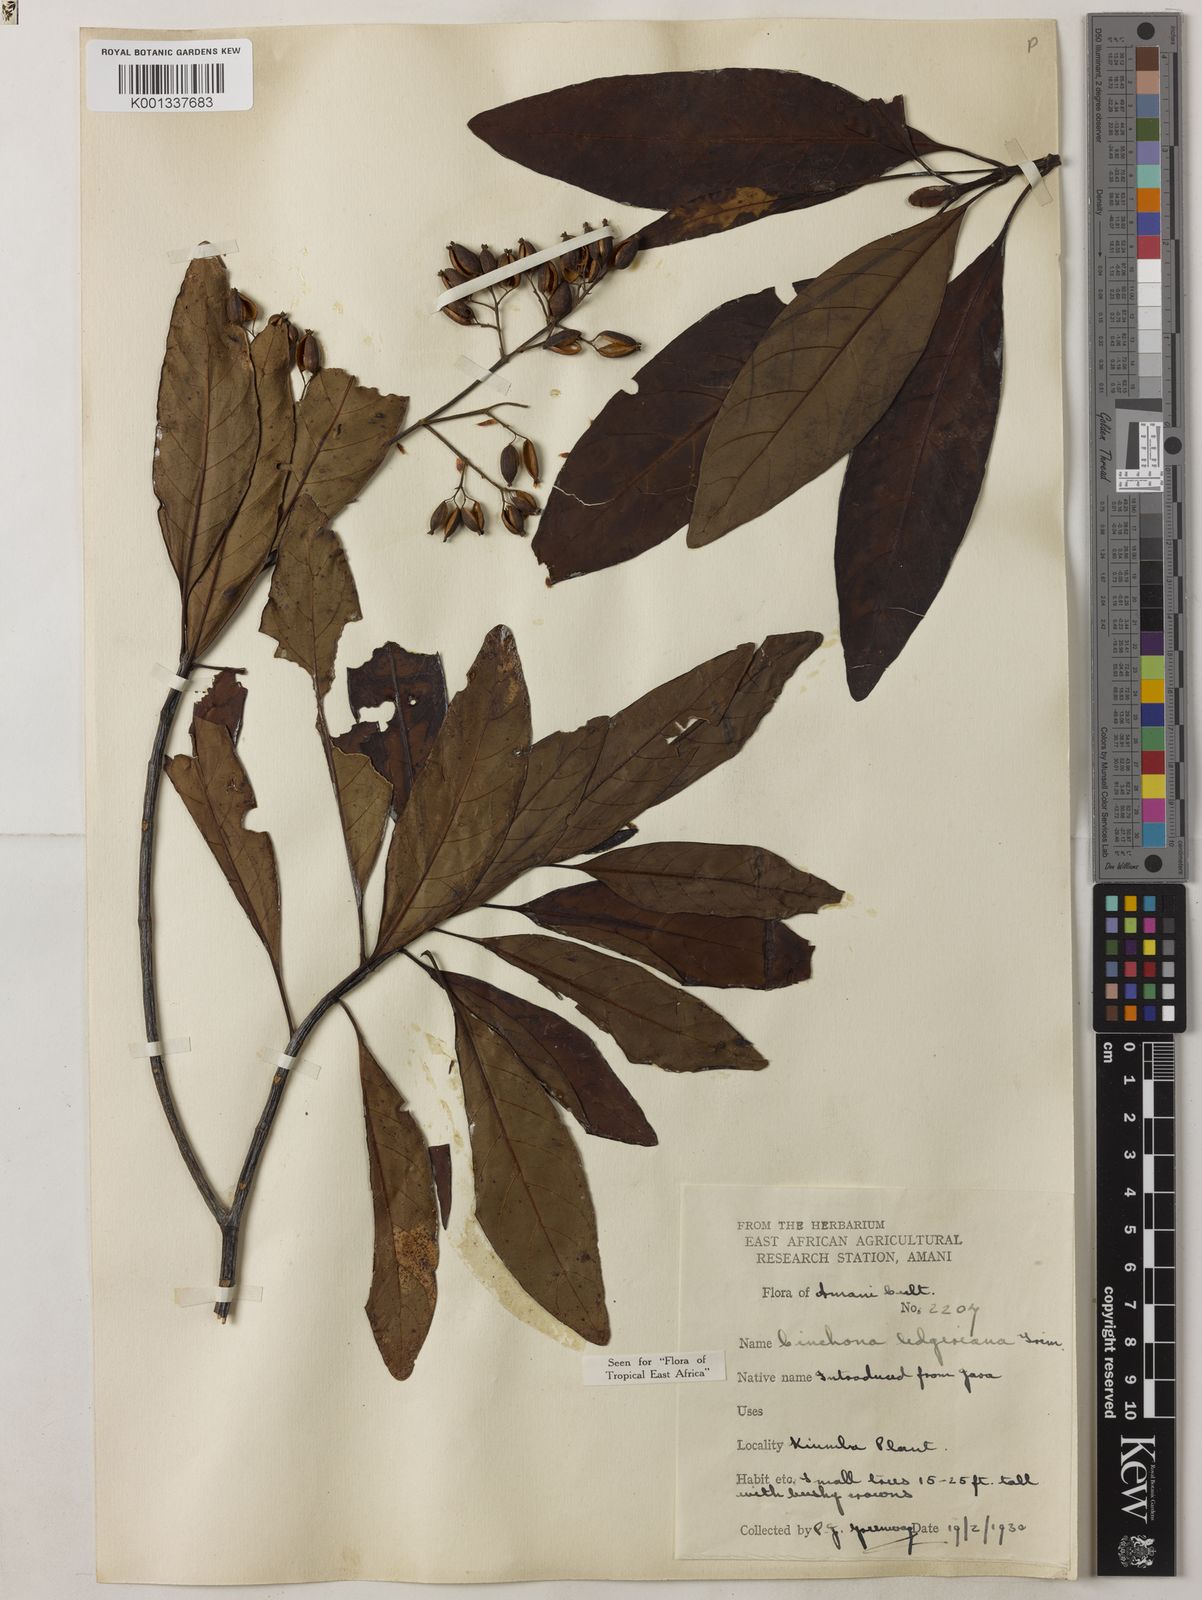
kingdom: Plantae
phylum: Tracheophyta
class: Magnoliopsida
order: Gentianales
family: Rubiaceae
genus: Cinchona
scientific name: Cinchona calisaya
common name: Ledgerbark
